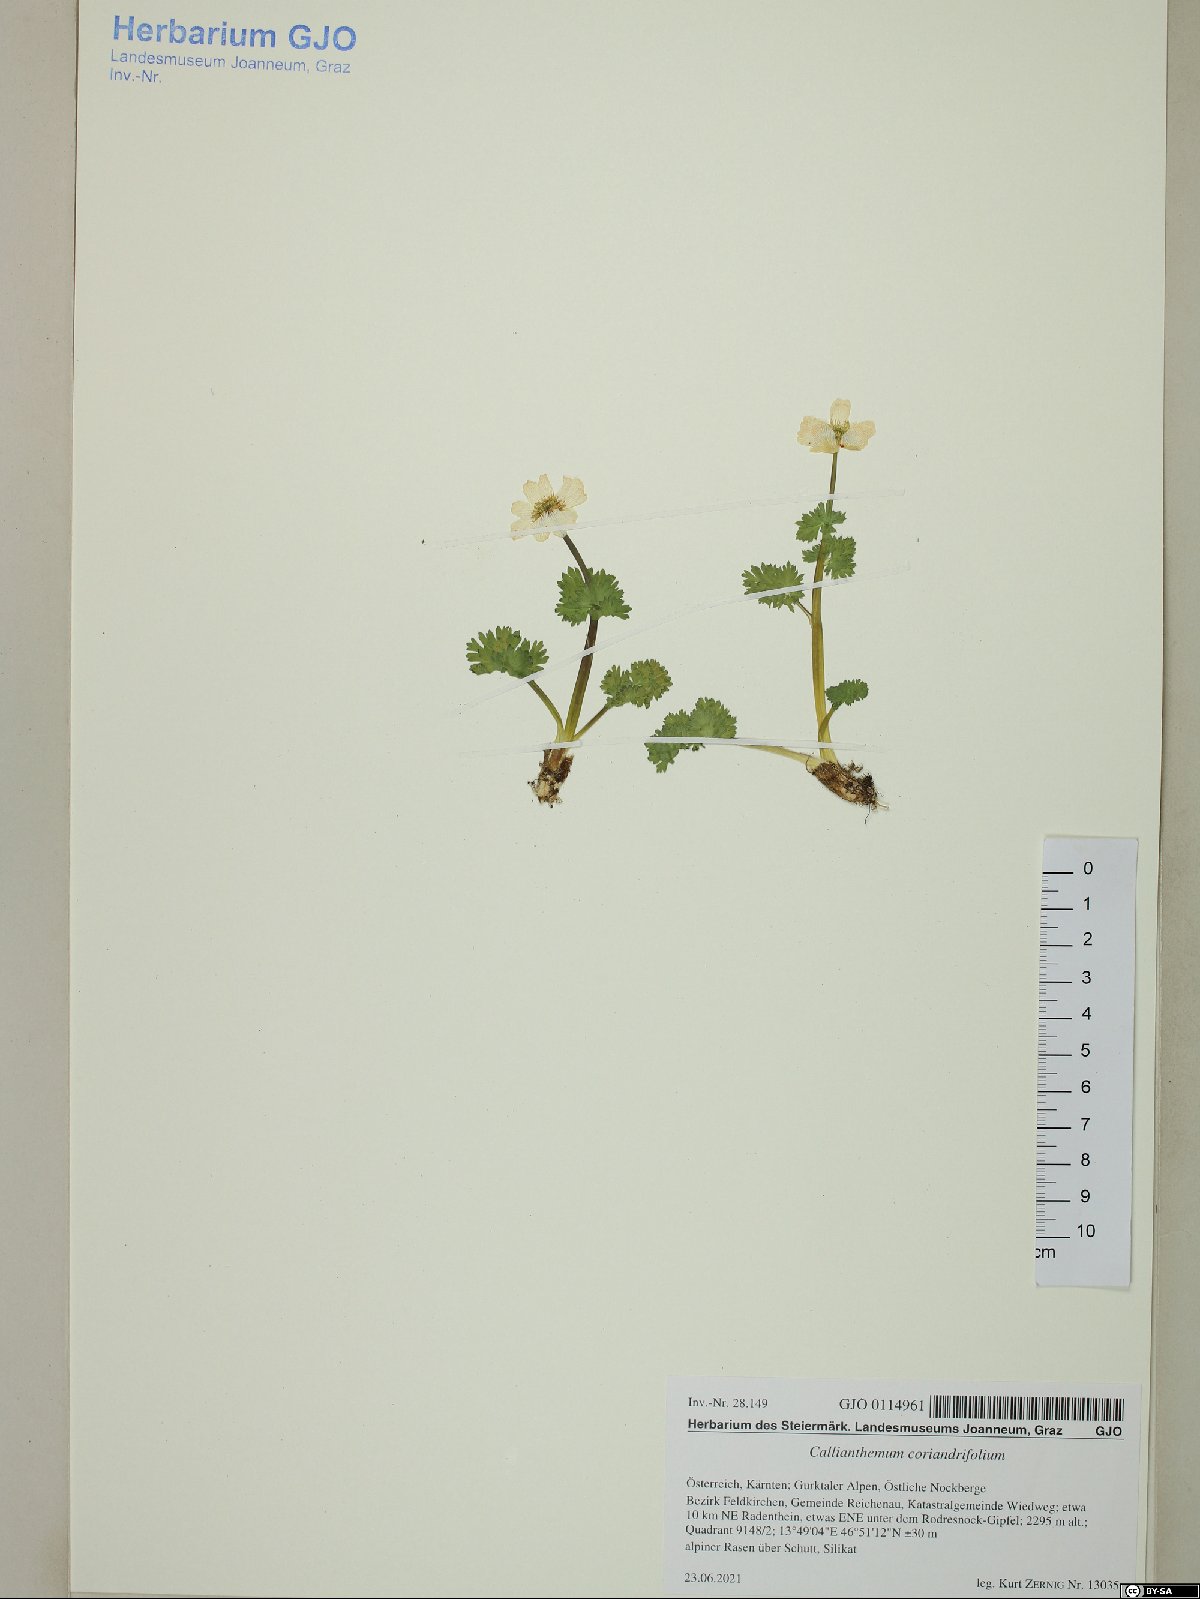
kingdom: Plantae
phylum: Tracheophyta
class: Magnoliopsida
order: Ranunculales
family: Ranunculaceae
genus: Callianthemum
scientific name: Callianthemum coriandrifolium
